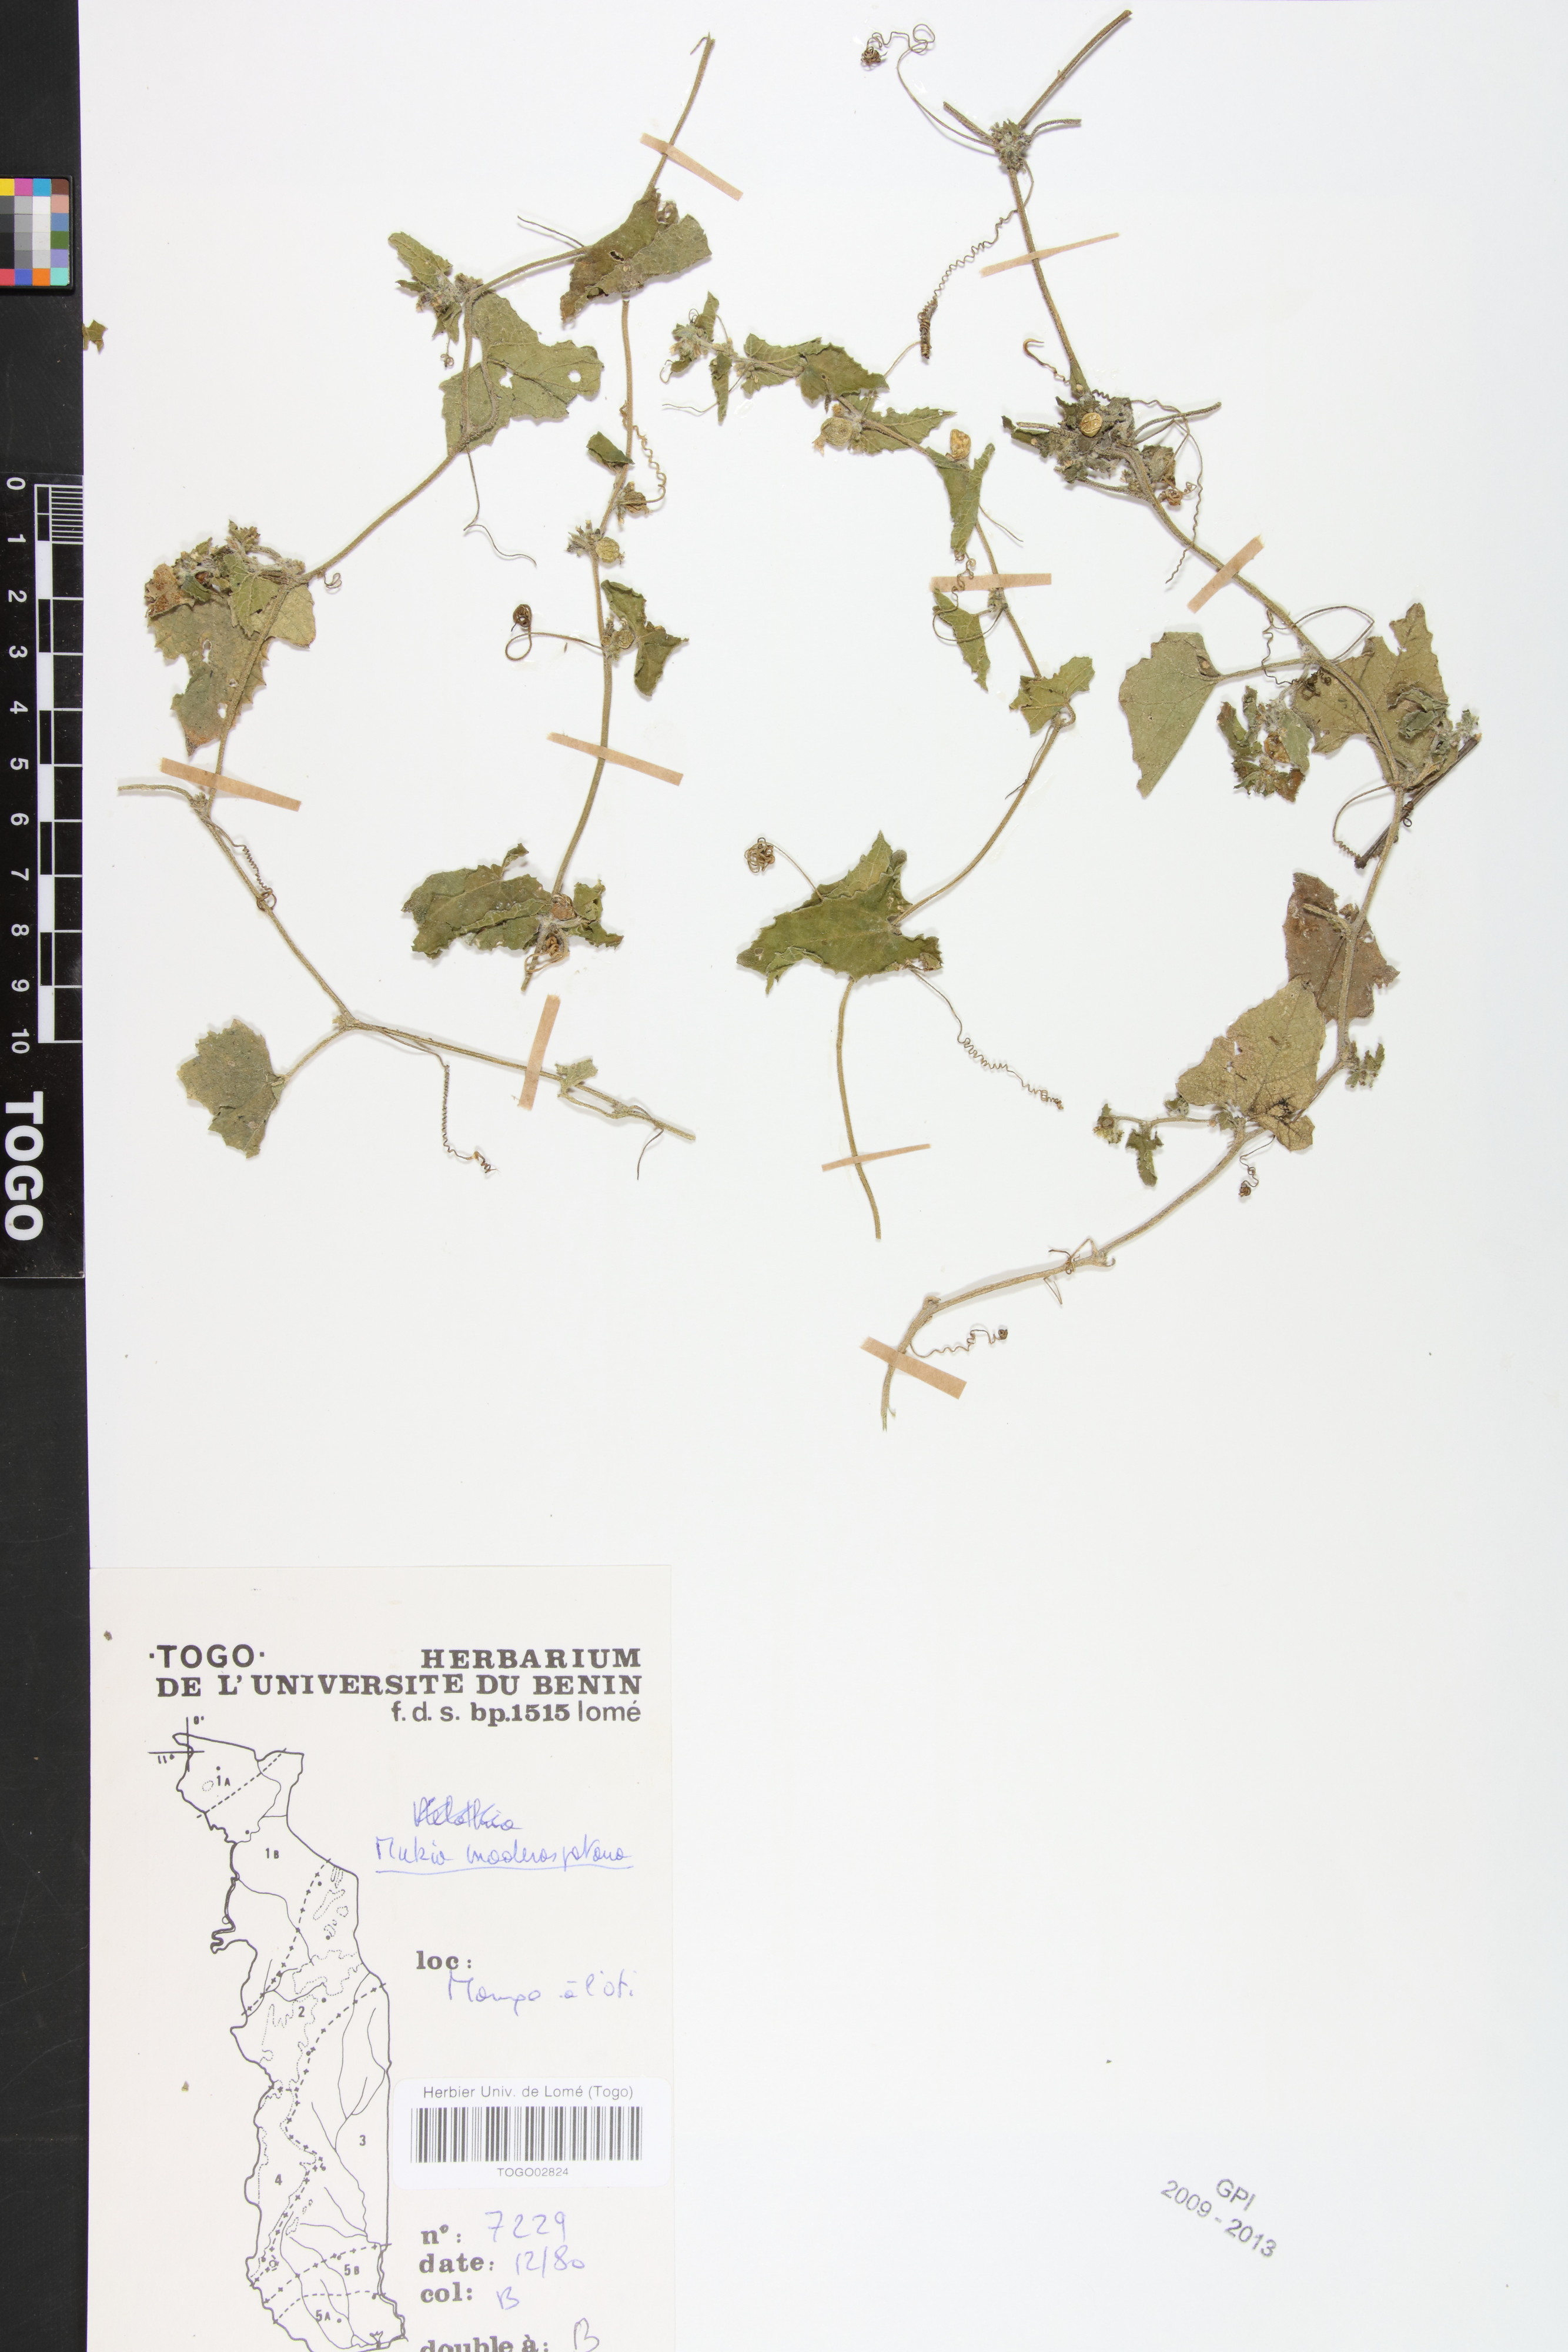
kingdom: Plantae
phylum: Tracheophyta
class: Magnoliopsida
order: Cucurbitales
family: Cucurbitaceae
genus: Cucumis
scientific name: Cucumis maderaspatanus
